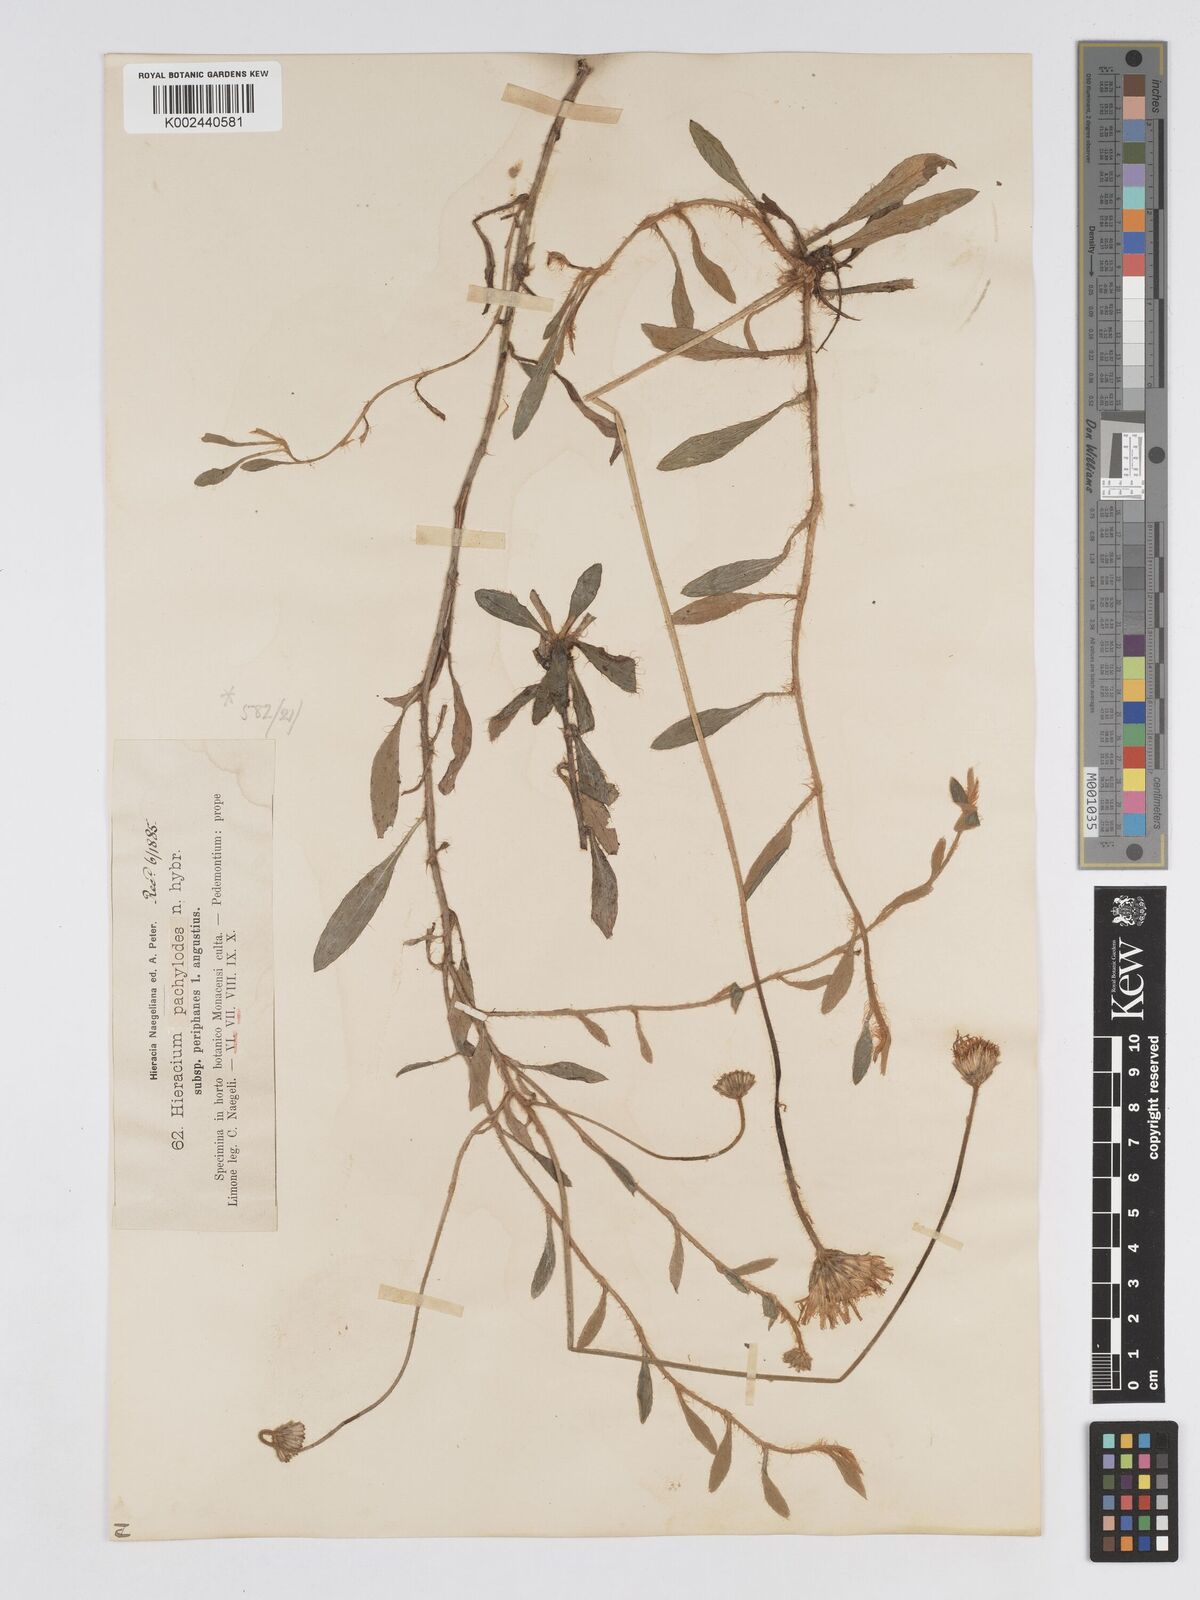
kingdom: Plantae
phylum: Tracheophyta
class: Magnoliopsida
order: Asterales
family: Asteraceae
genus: Pilosella
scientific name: Pilosella longisquama
